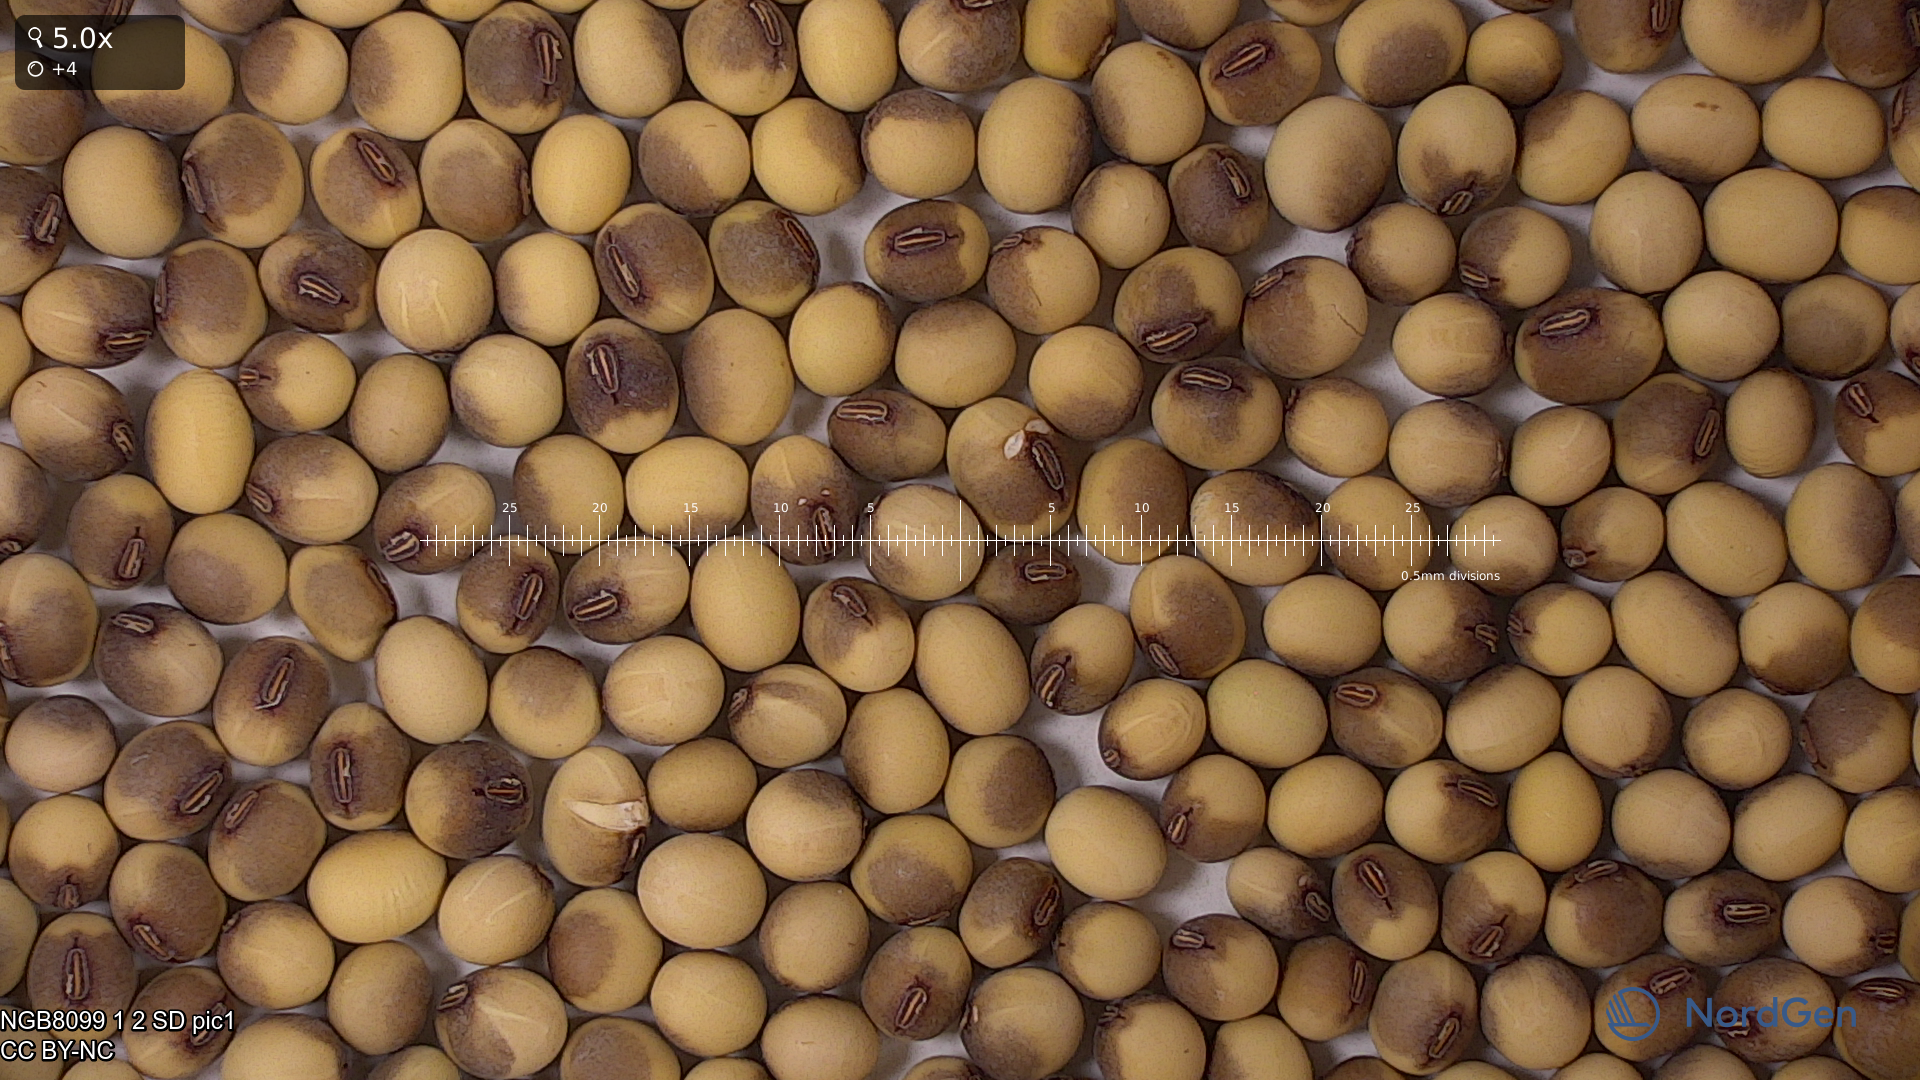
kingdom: Plantae
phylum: Tracheophyta
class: Magnoliopsida
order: Fabales
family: Fabaceae
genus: Glycine
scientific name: Glycine max
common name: Soya-bean
